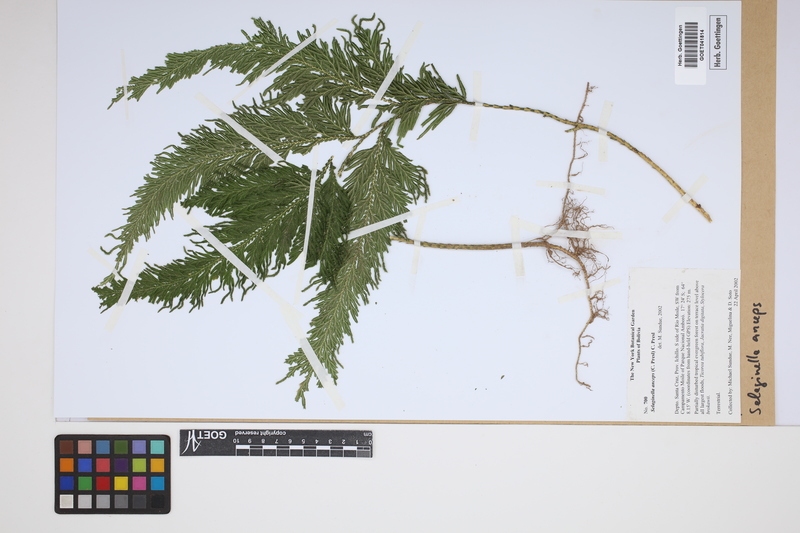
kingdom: Plantae
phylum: Tracheophyta
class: Lycopodiopsida
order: Selaginellales
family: Selaginellaceae
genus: Selaginella
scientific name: Selaginella anceps
